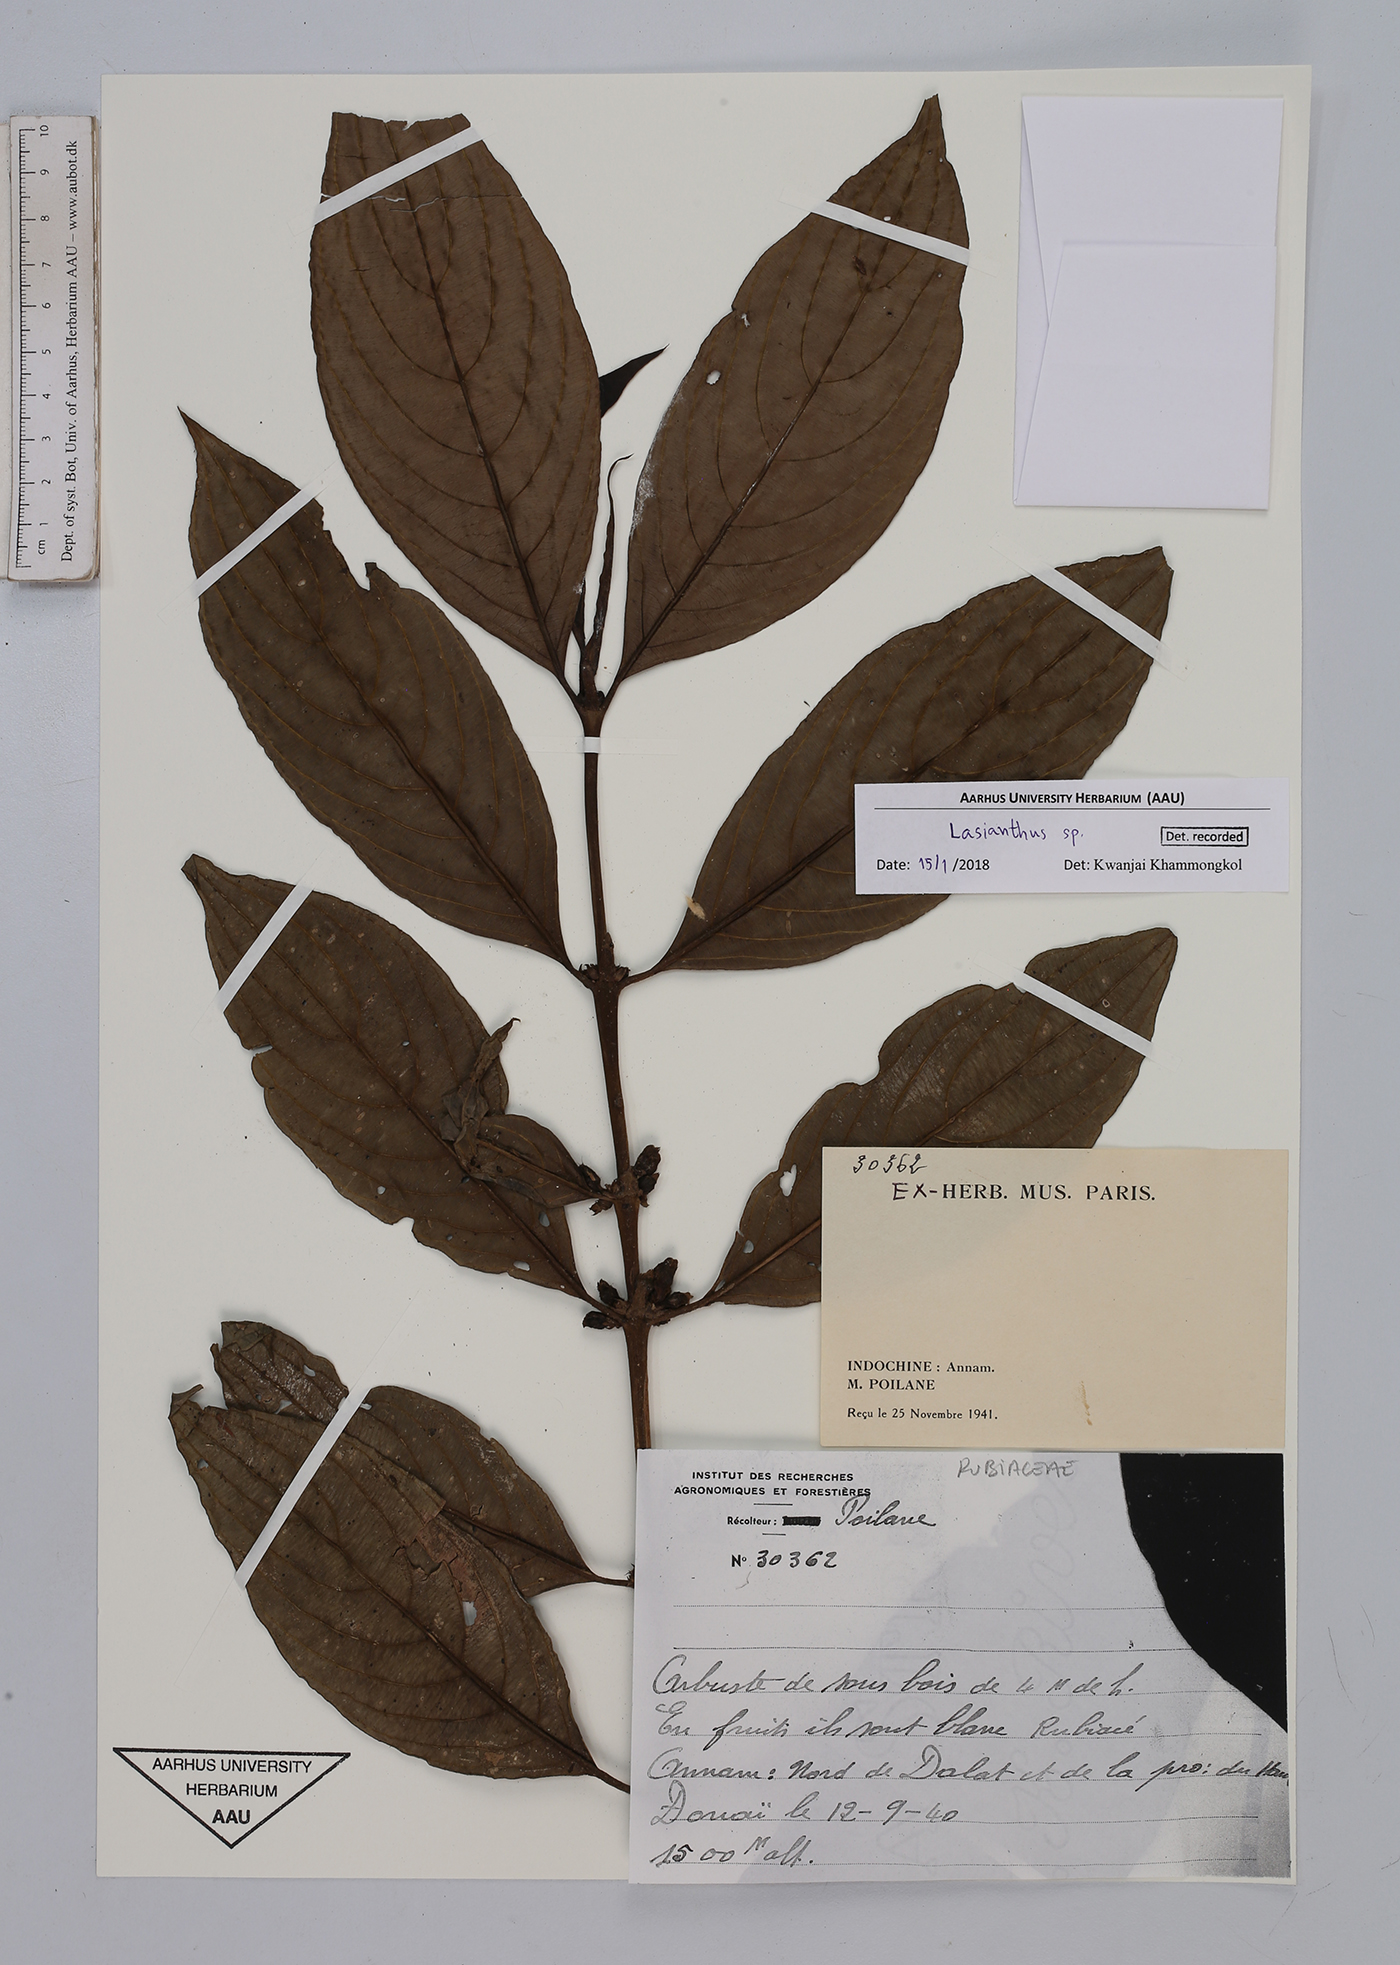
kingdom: Plantae
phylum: Tracheophyta
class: Magnoliopsida
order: Gentianales
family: Rubiaceae
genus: Lasianthus
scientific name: Lasianthus
